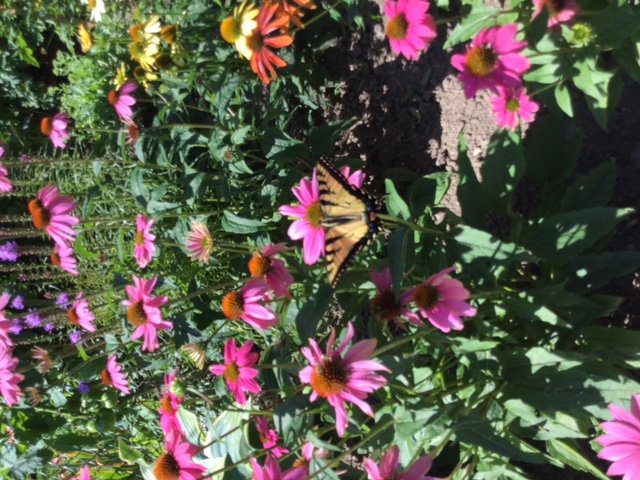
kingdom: Animalia
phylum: Arthropoda
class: Insecta
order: Lepidoptera
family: Papilionidae
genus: Pterourus
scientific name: Pterourus glaucus
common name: Eastern Tiger Swallowtail
